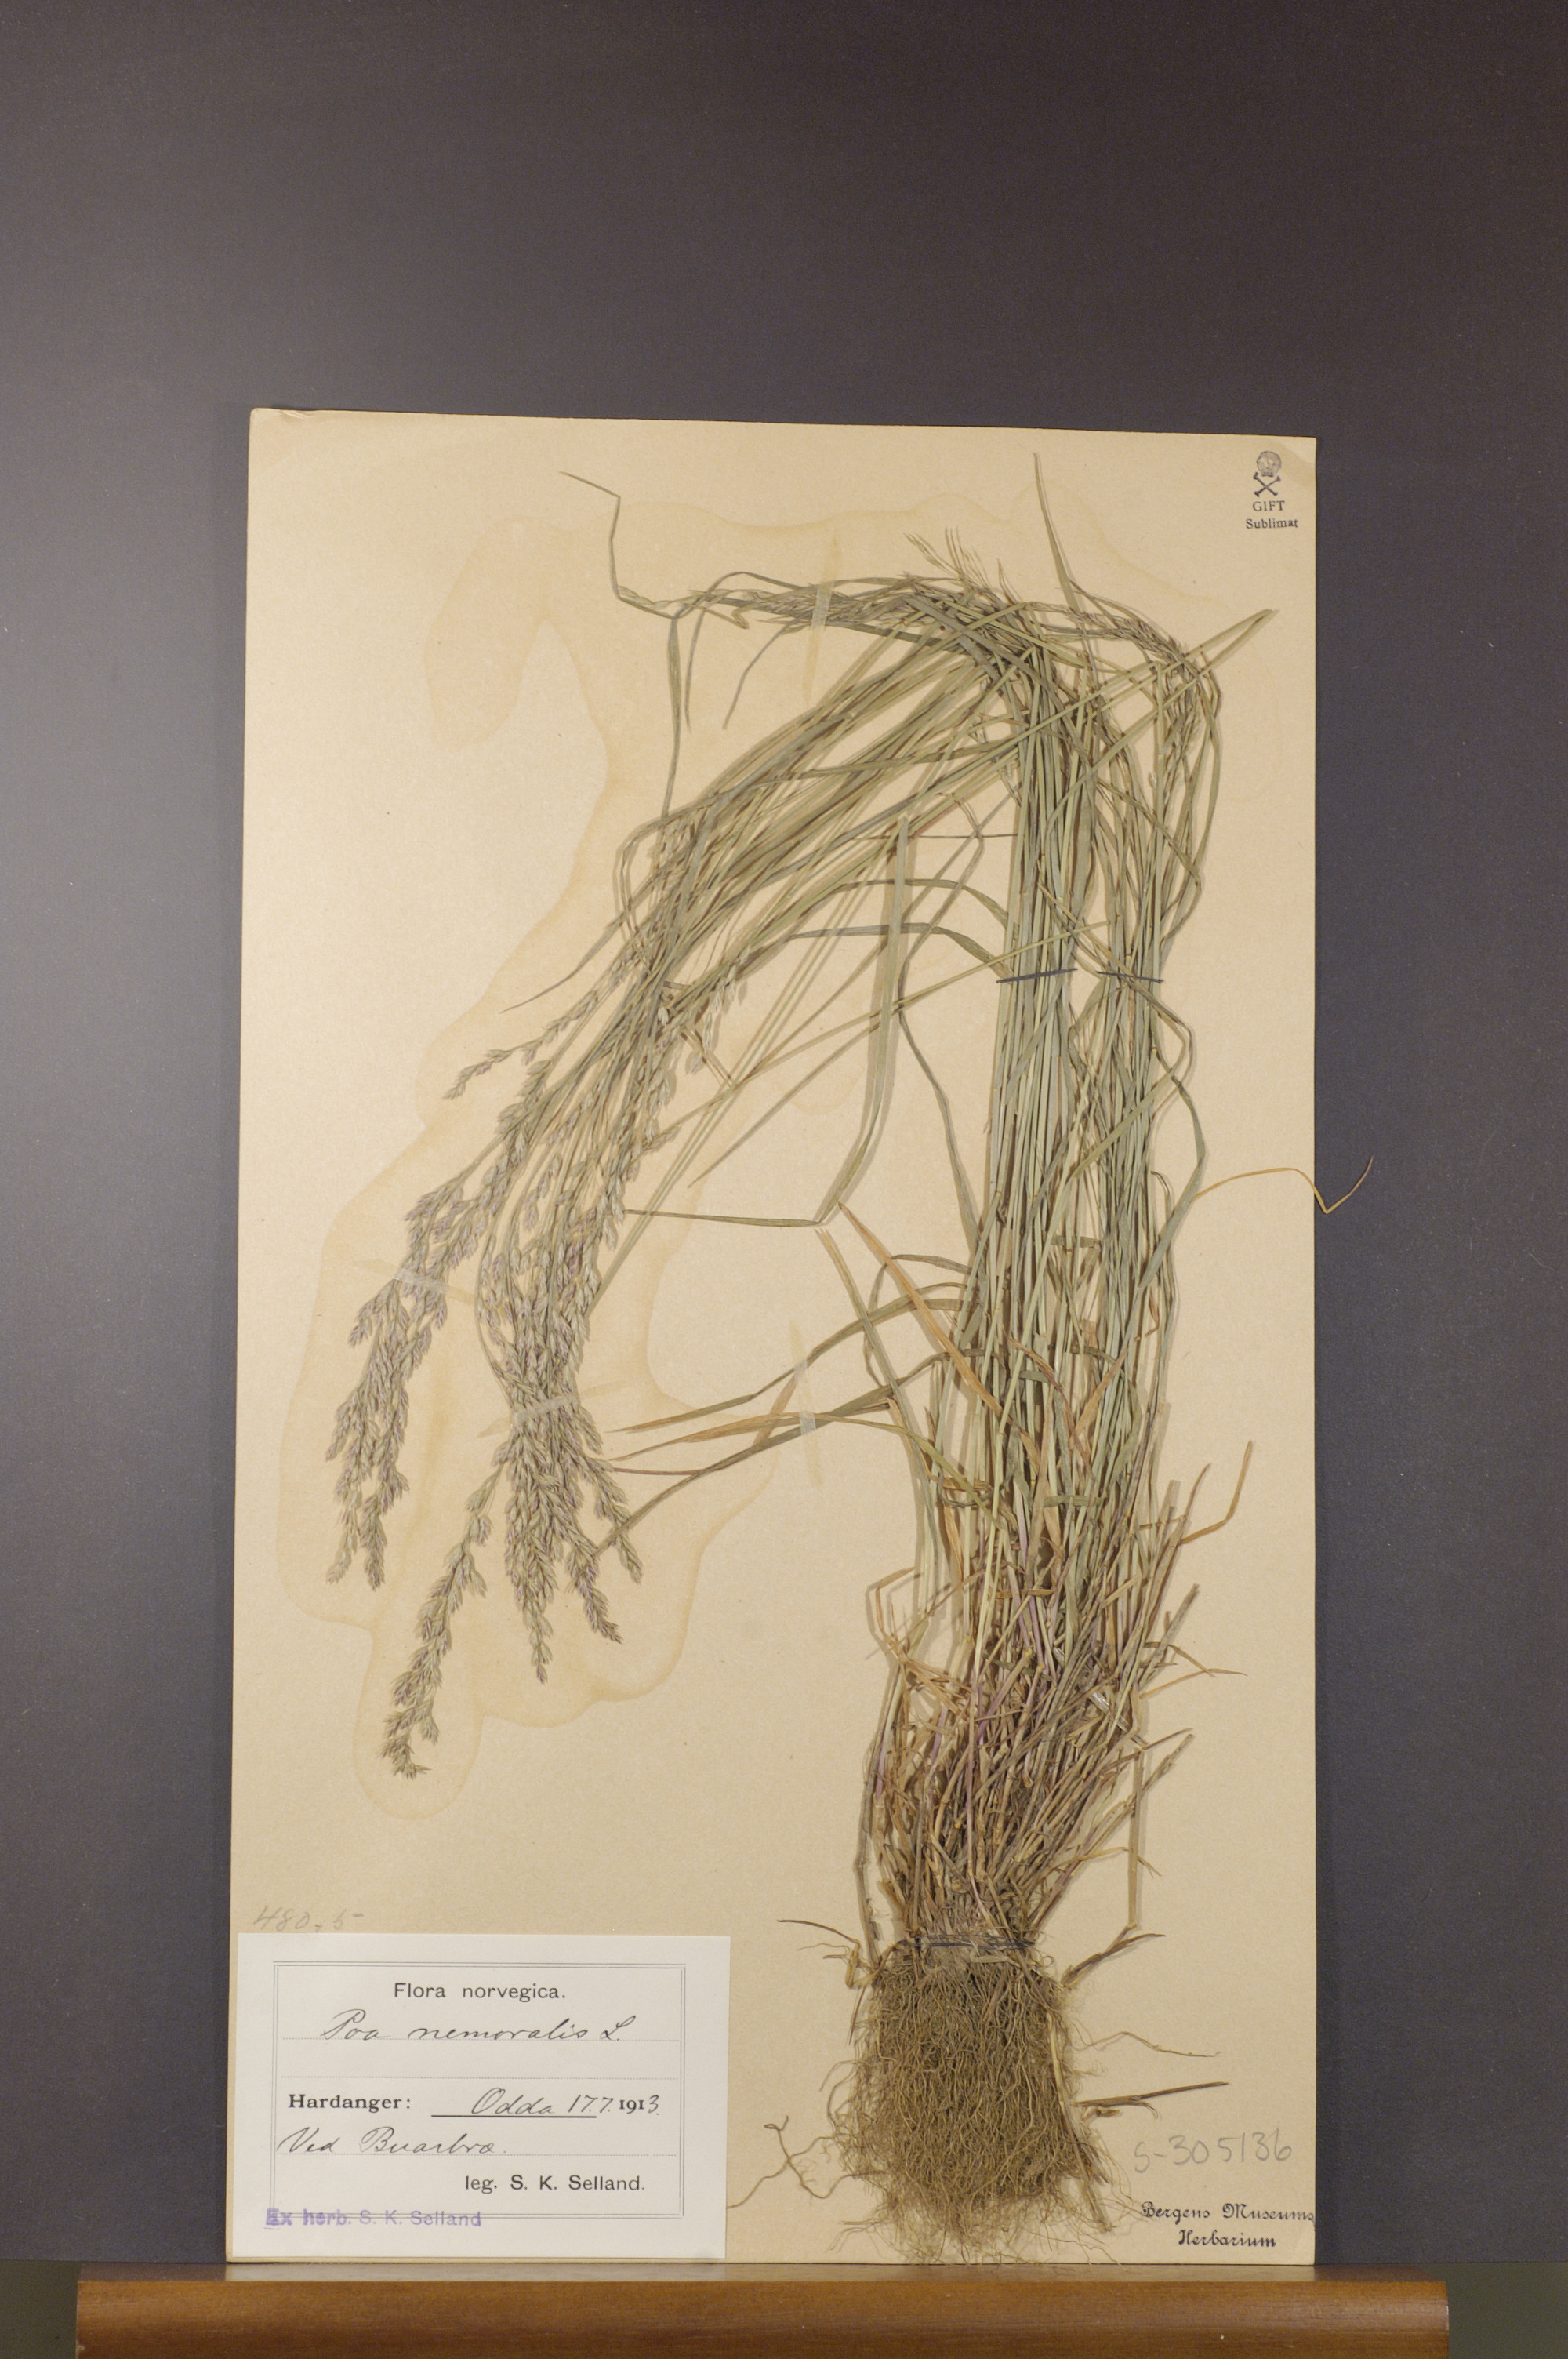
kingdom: Plantae
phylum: Tracheophyta
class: Liliopsida
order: Poales
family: Poaceae
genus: Poa
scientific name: Poa nemoralis
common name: Wood bluegrass
